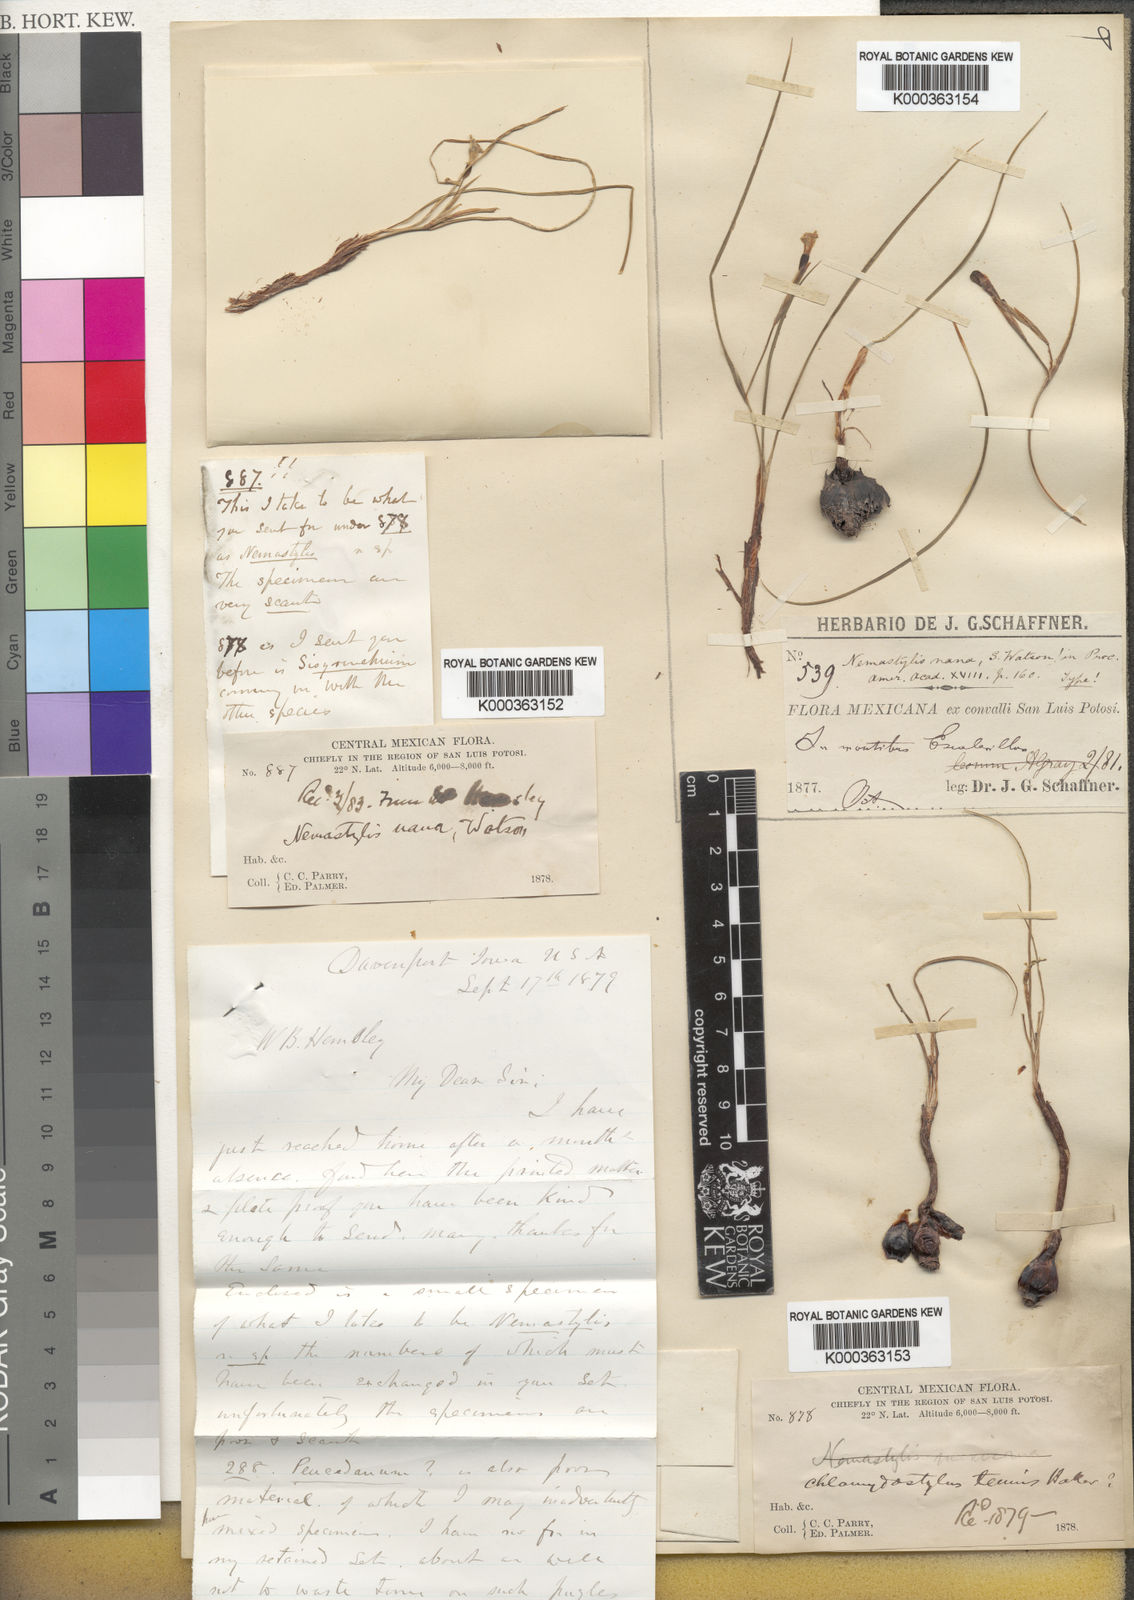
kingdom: Plantae
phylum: Tracheophyta
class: Liliopsida
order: Asparagales
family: Iridaceae
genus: Nemastylis
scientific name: Nemastylis tenuis
